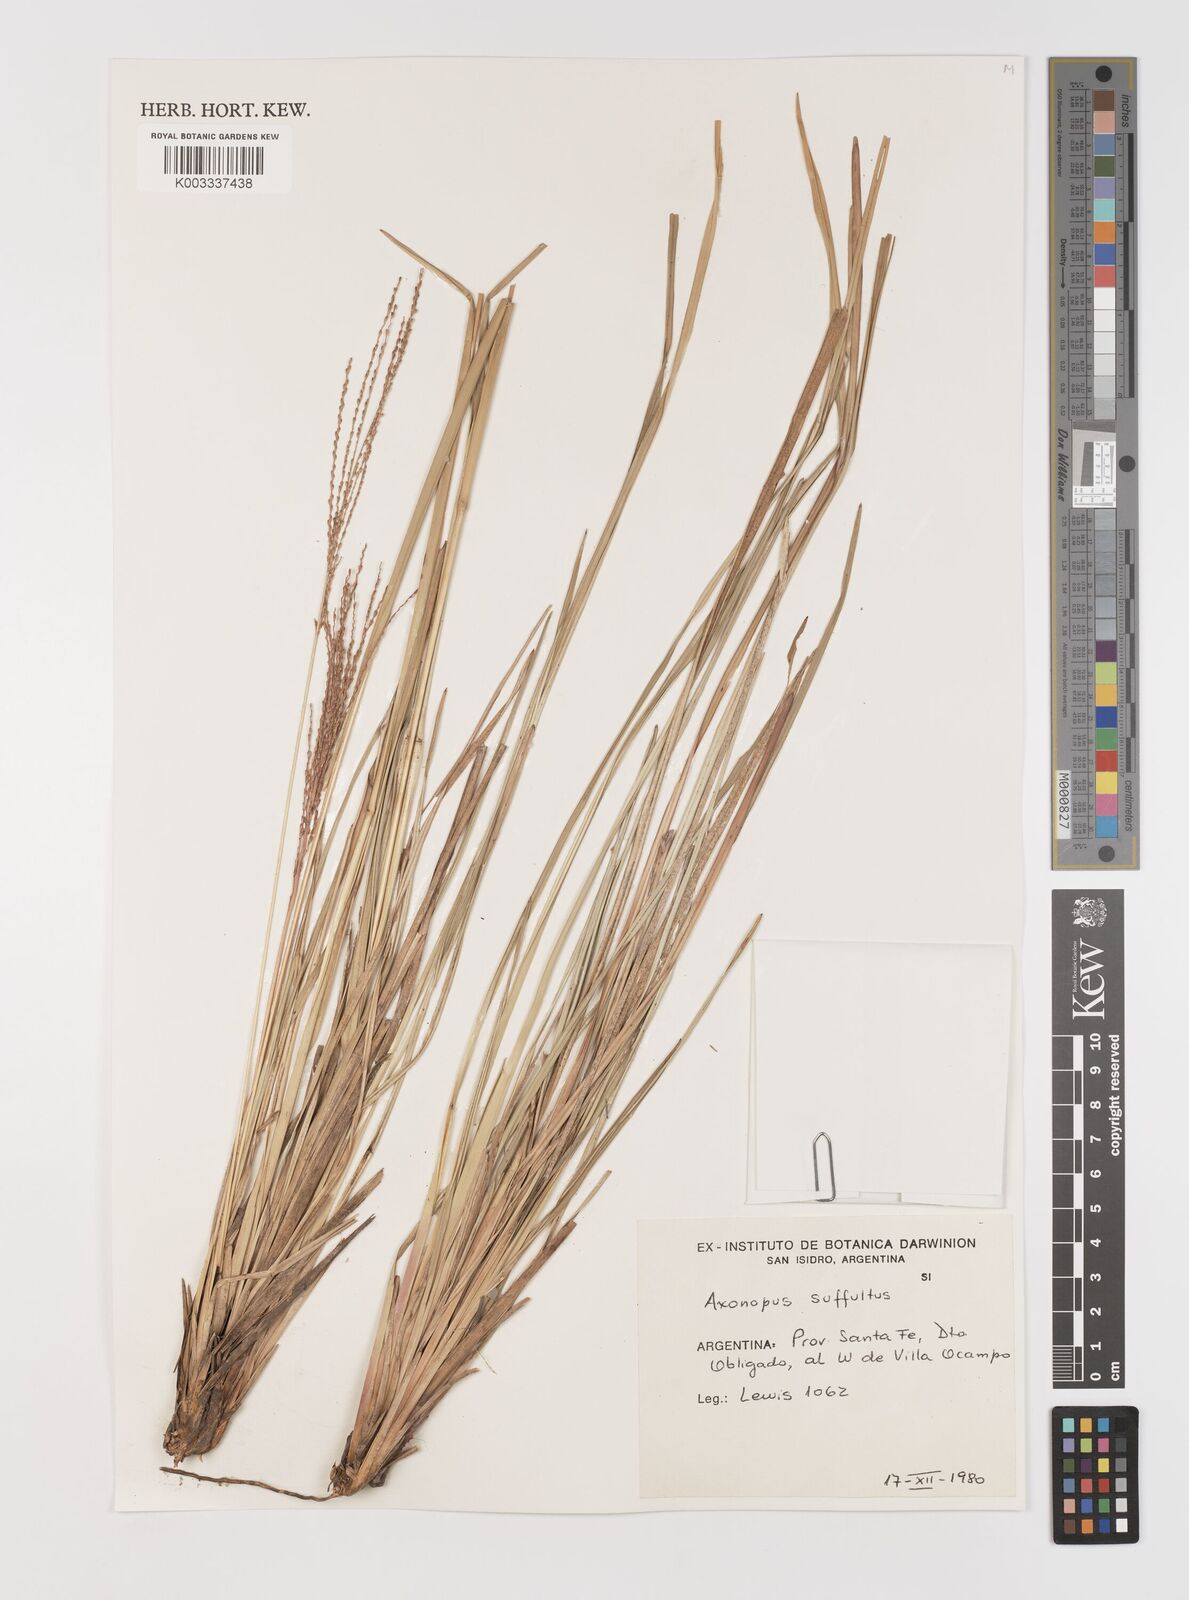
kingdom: Plantae
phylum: Tracheophyta
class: Liliopsida
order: Poales
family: Poaceae
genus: Axonopus
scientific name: Axonopus suffultus
